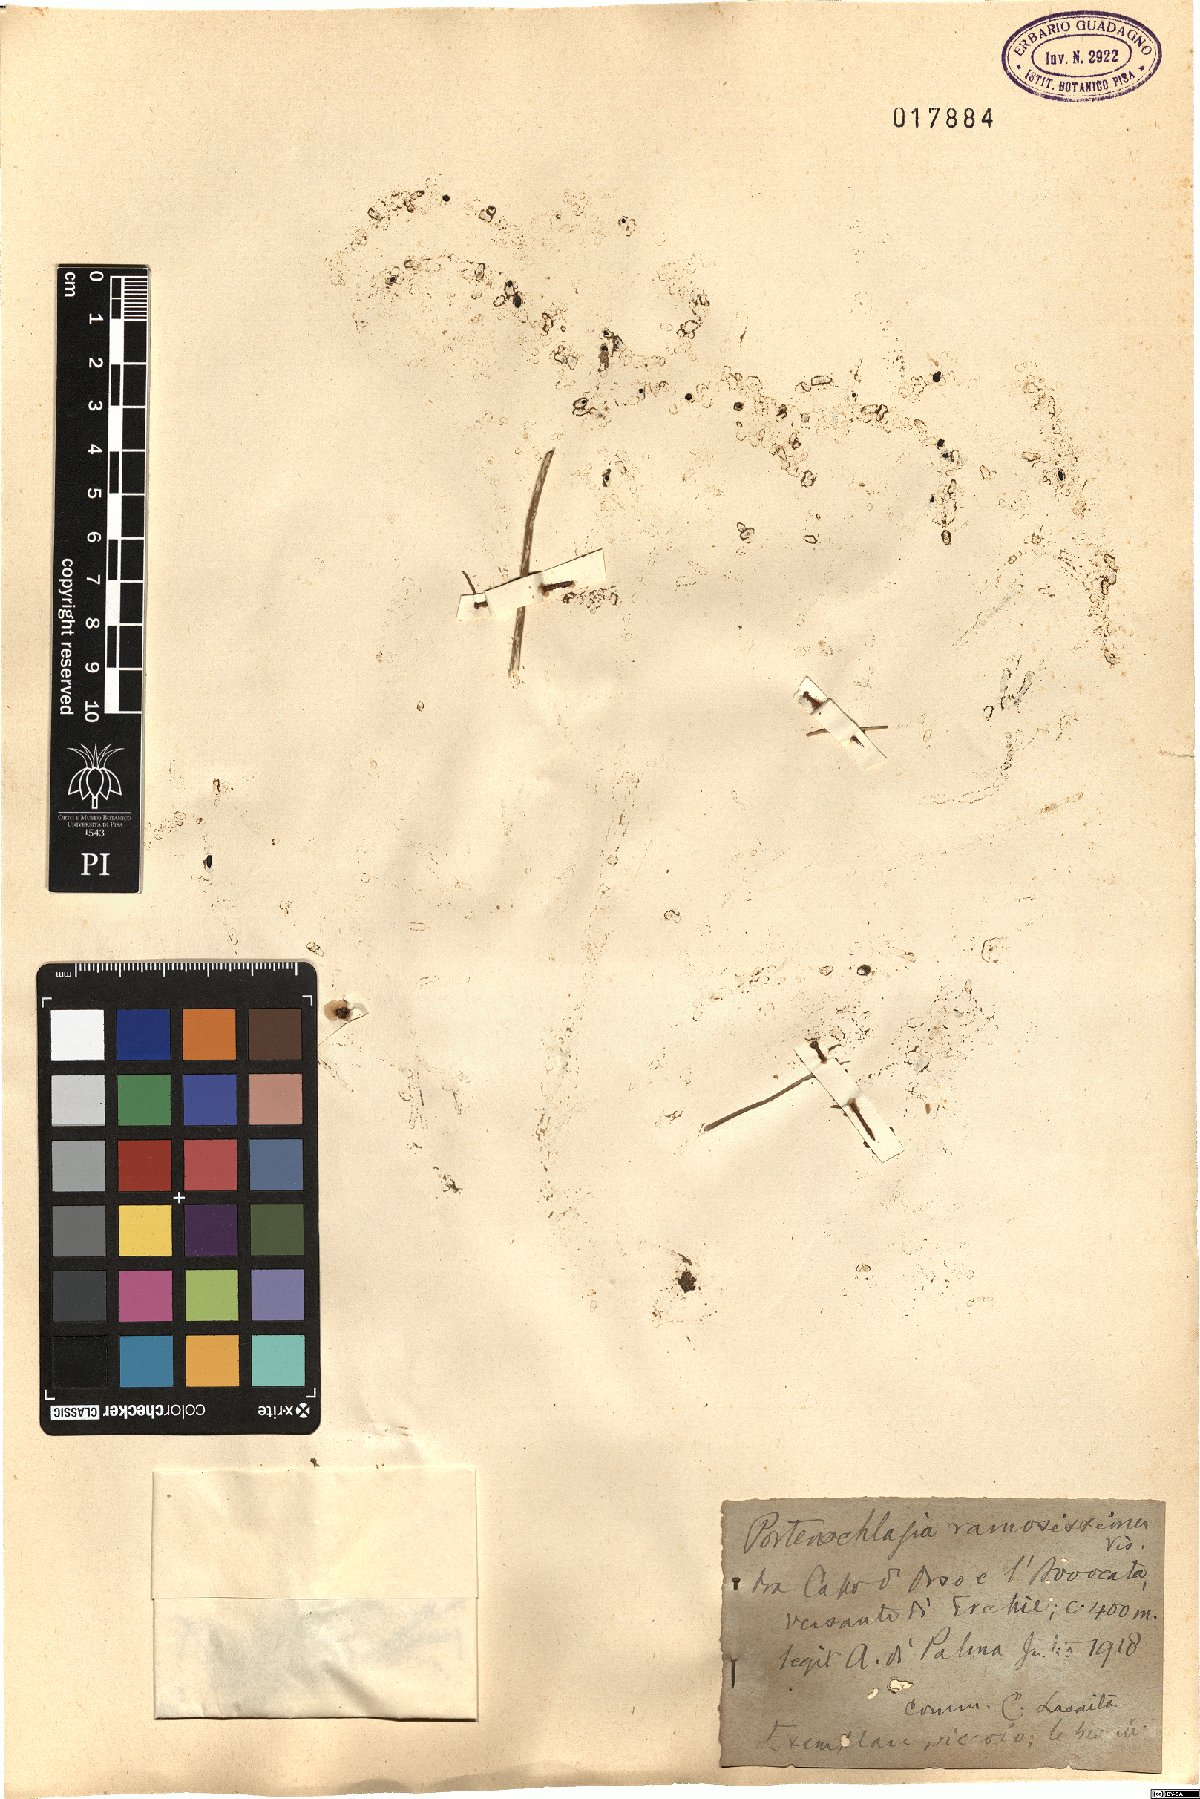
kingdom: Plantae
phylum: Tracheophyta
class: Magnoliopsida
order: Apiales
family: Apiaceae
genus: Athamanta
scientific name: Athamanta ramosissima
